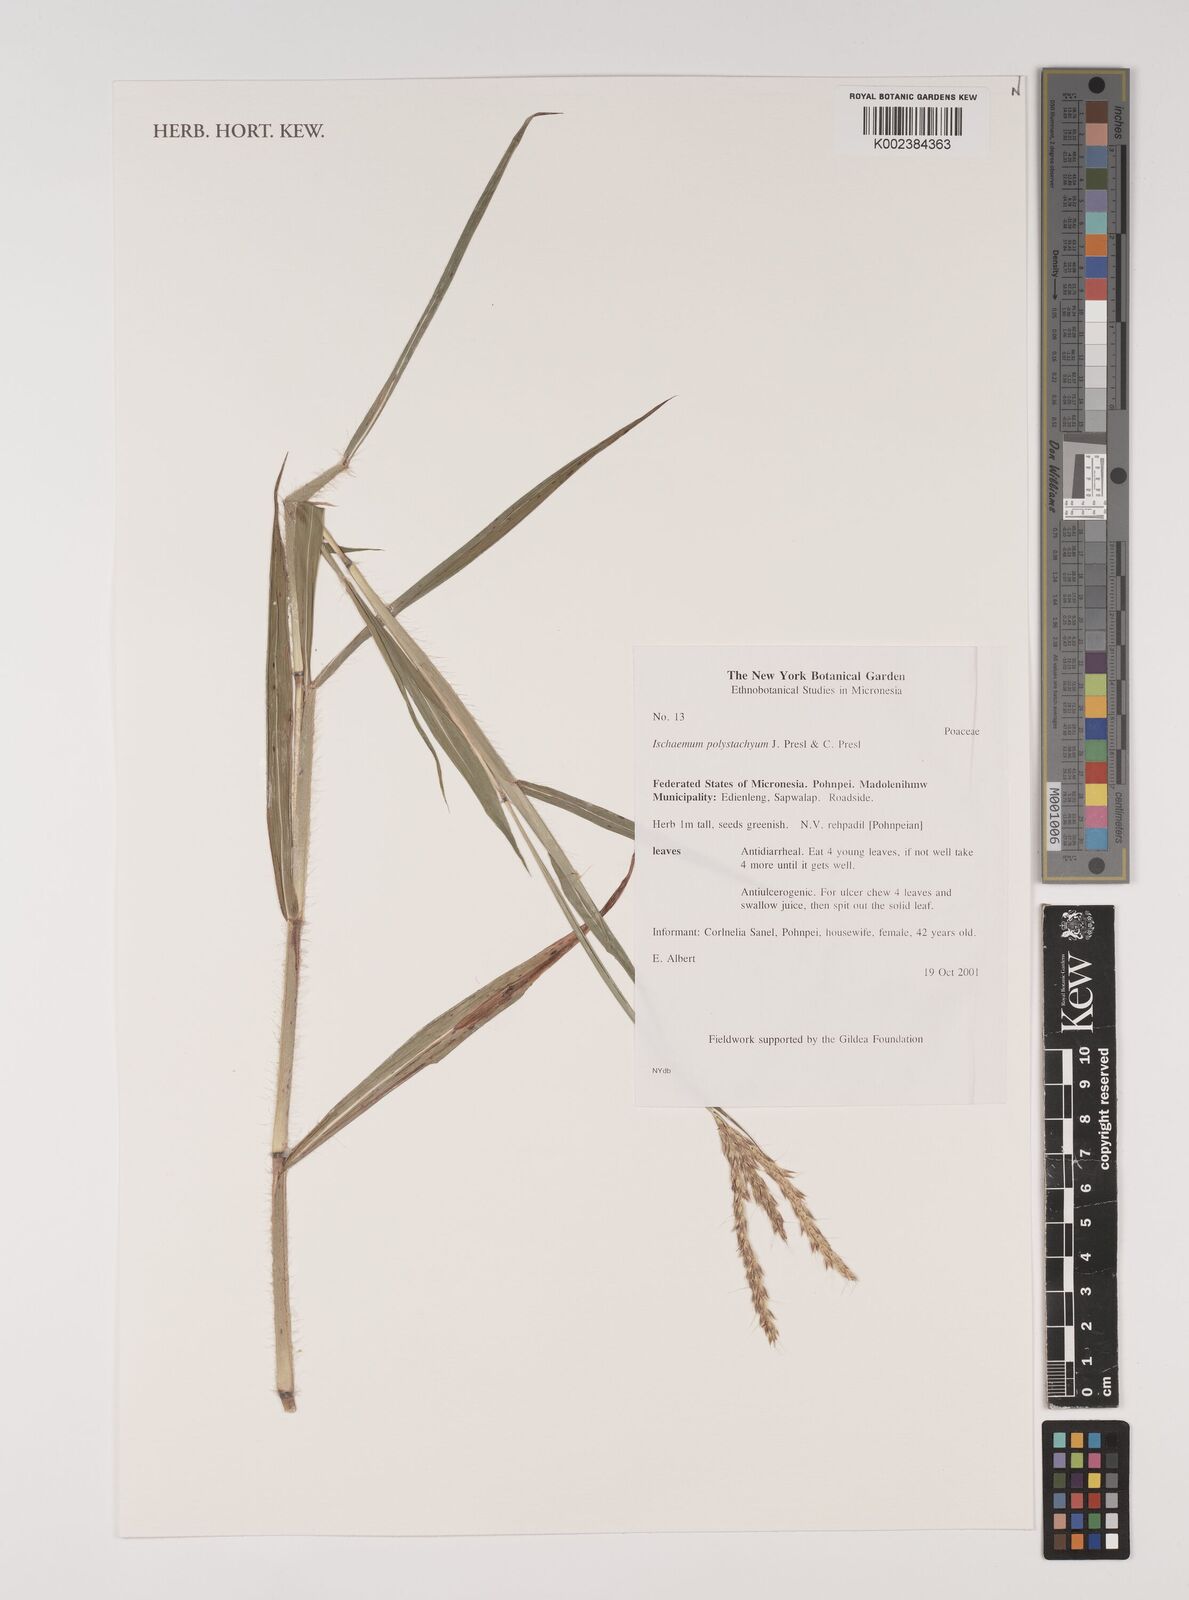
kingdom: Plantae
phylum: Tracheophyta
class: Liliopsida
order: Poales
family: Poaceae
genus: Ischaemum
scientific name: Ischaemum polystachyum
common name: Paddle grass
